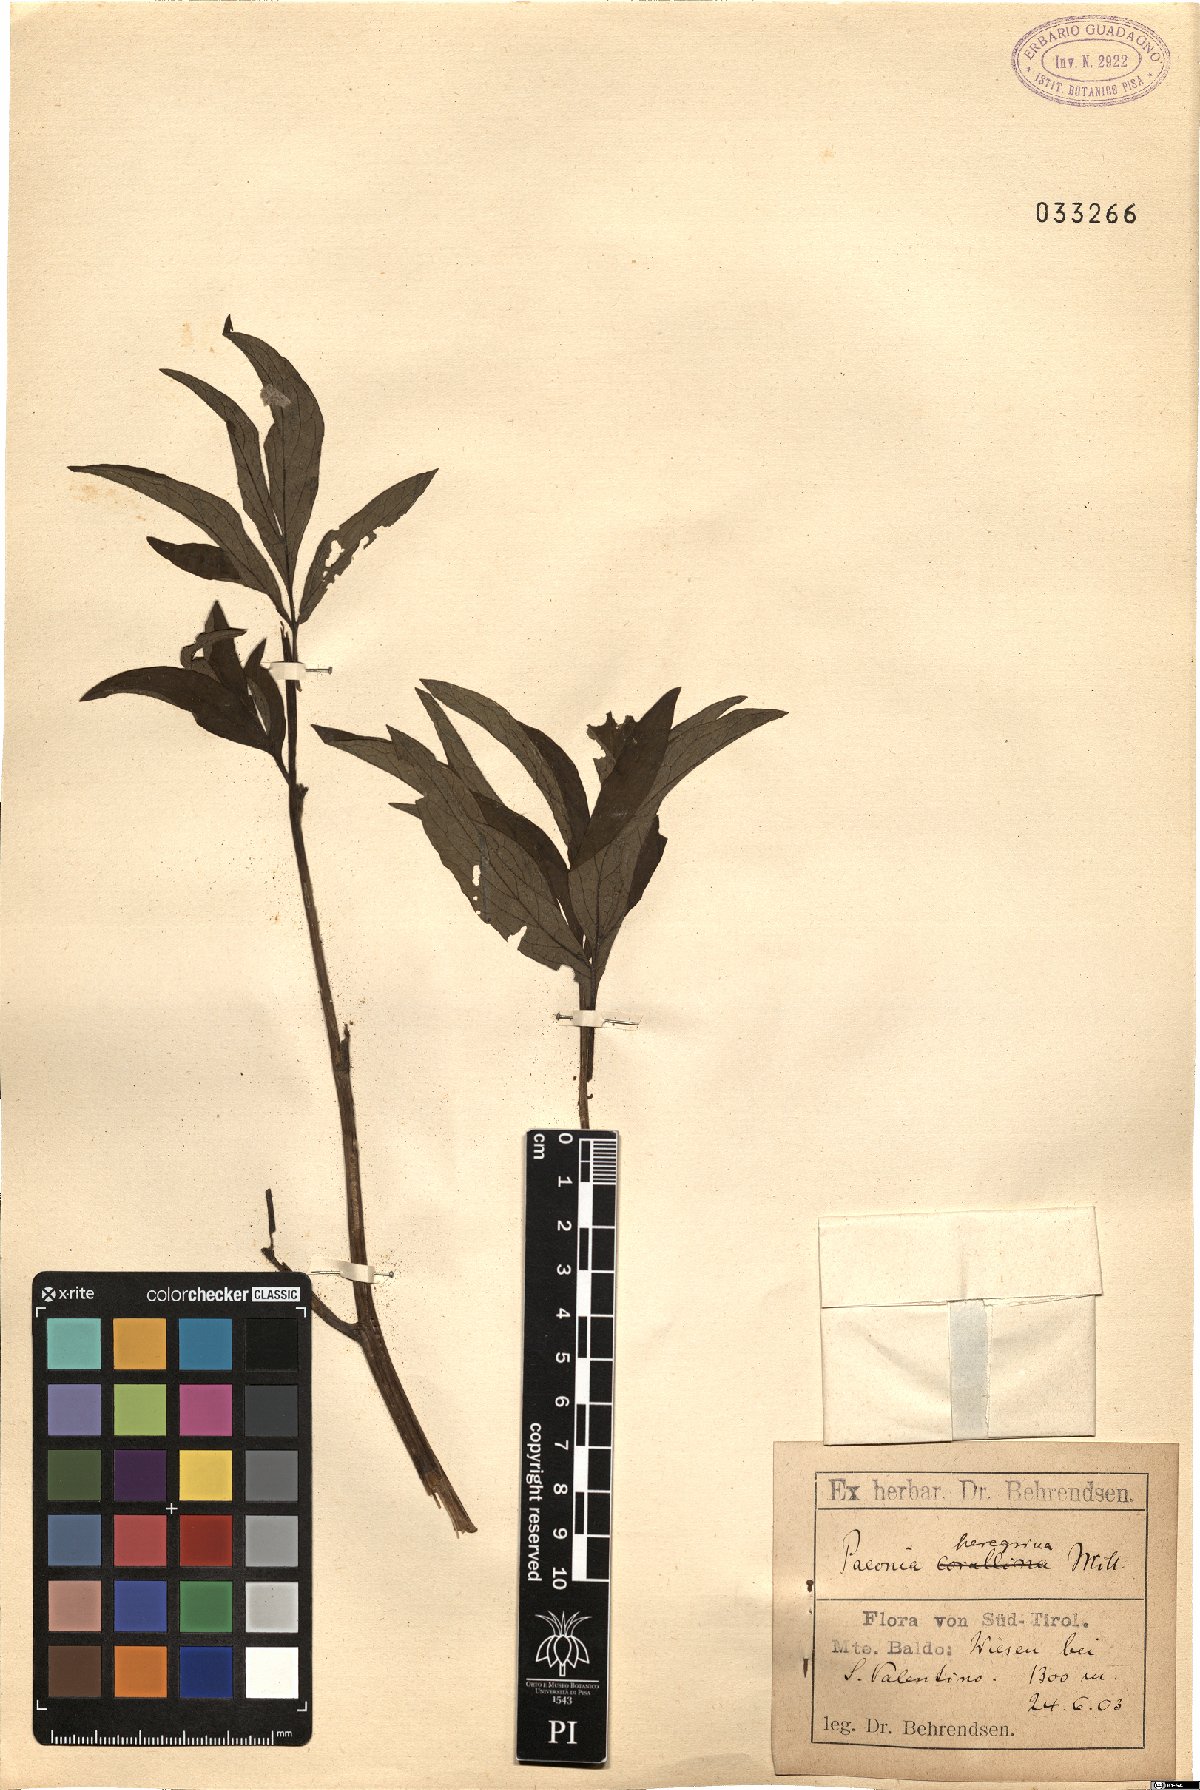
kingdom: Plantae
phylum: Tracheophyta
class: Magnoliopsida
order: Saxifragales
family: Paeoniaceae
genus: Paeonia
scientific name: Paeonia peregrina
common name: Scarlet peony
